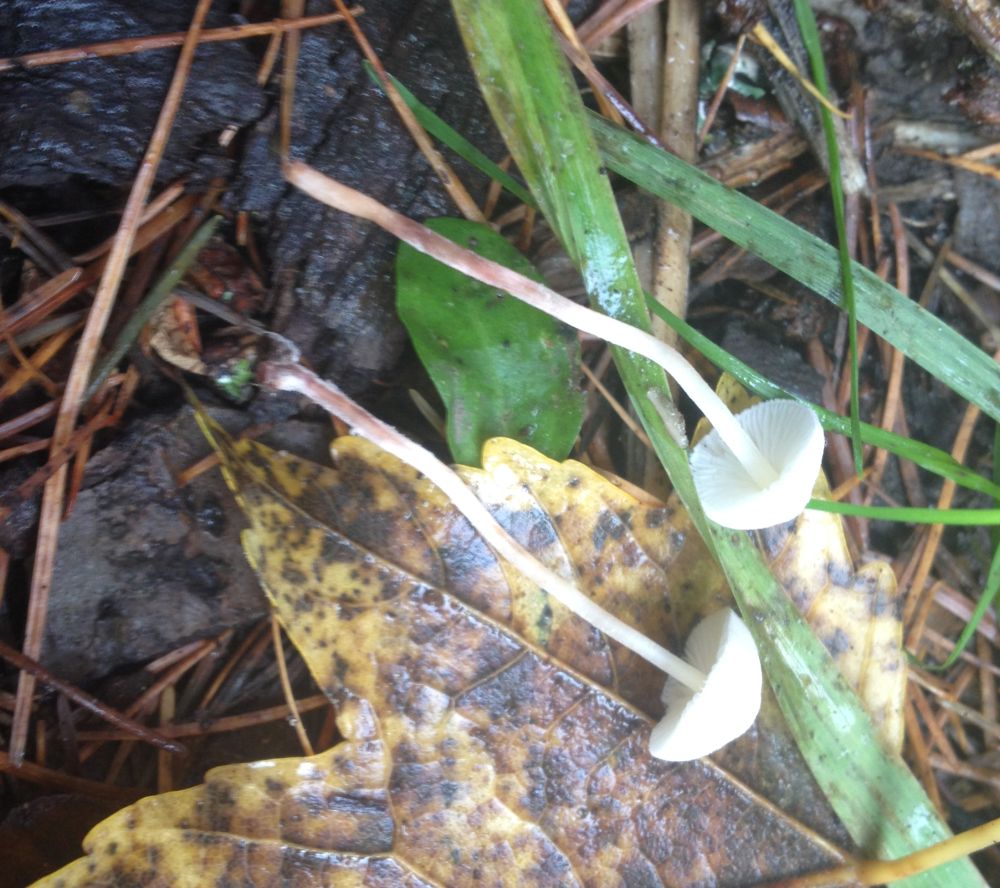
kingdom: Fungi
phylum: Basidiomycota
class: Agaricomycetes
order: Agaricales
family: Agaricaceae
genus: Cystolepiota
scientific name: Cystolepiota seminuda
